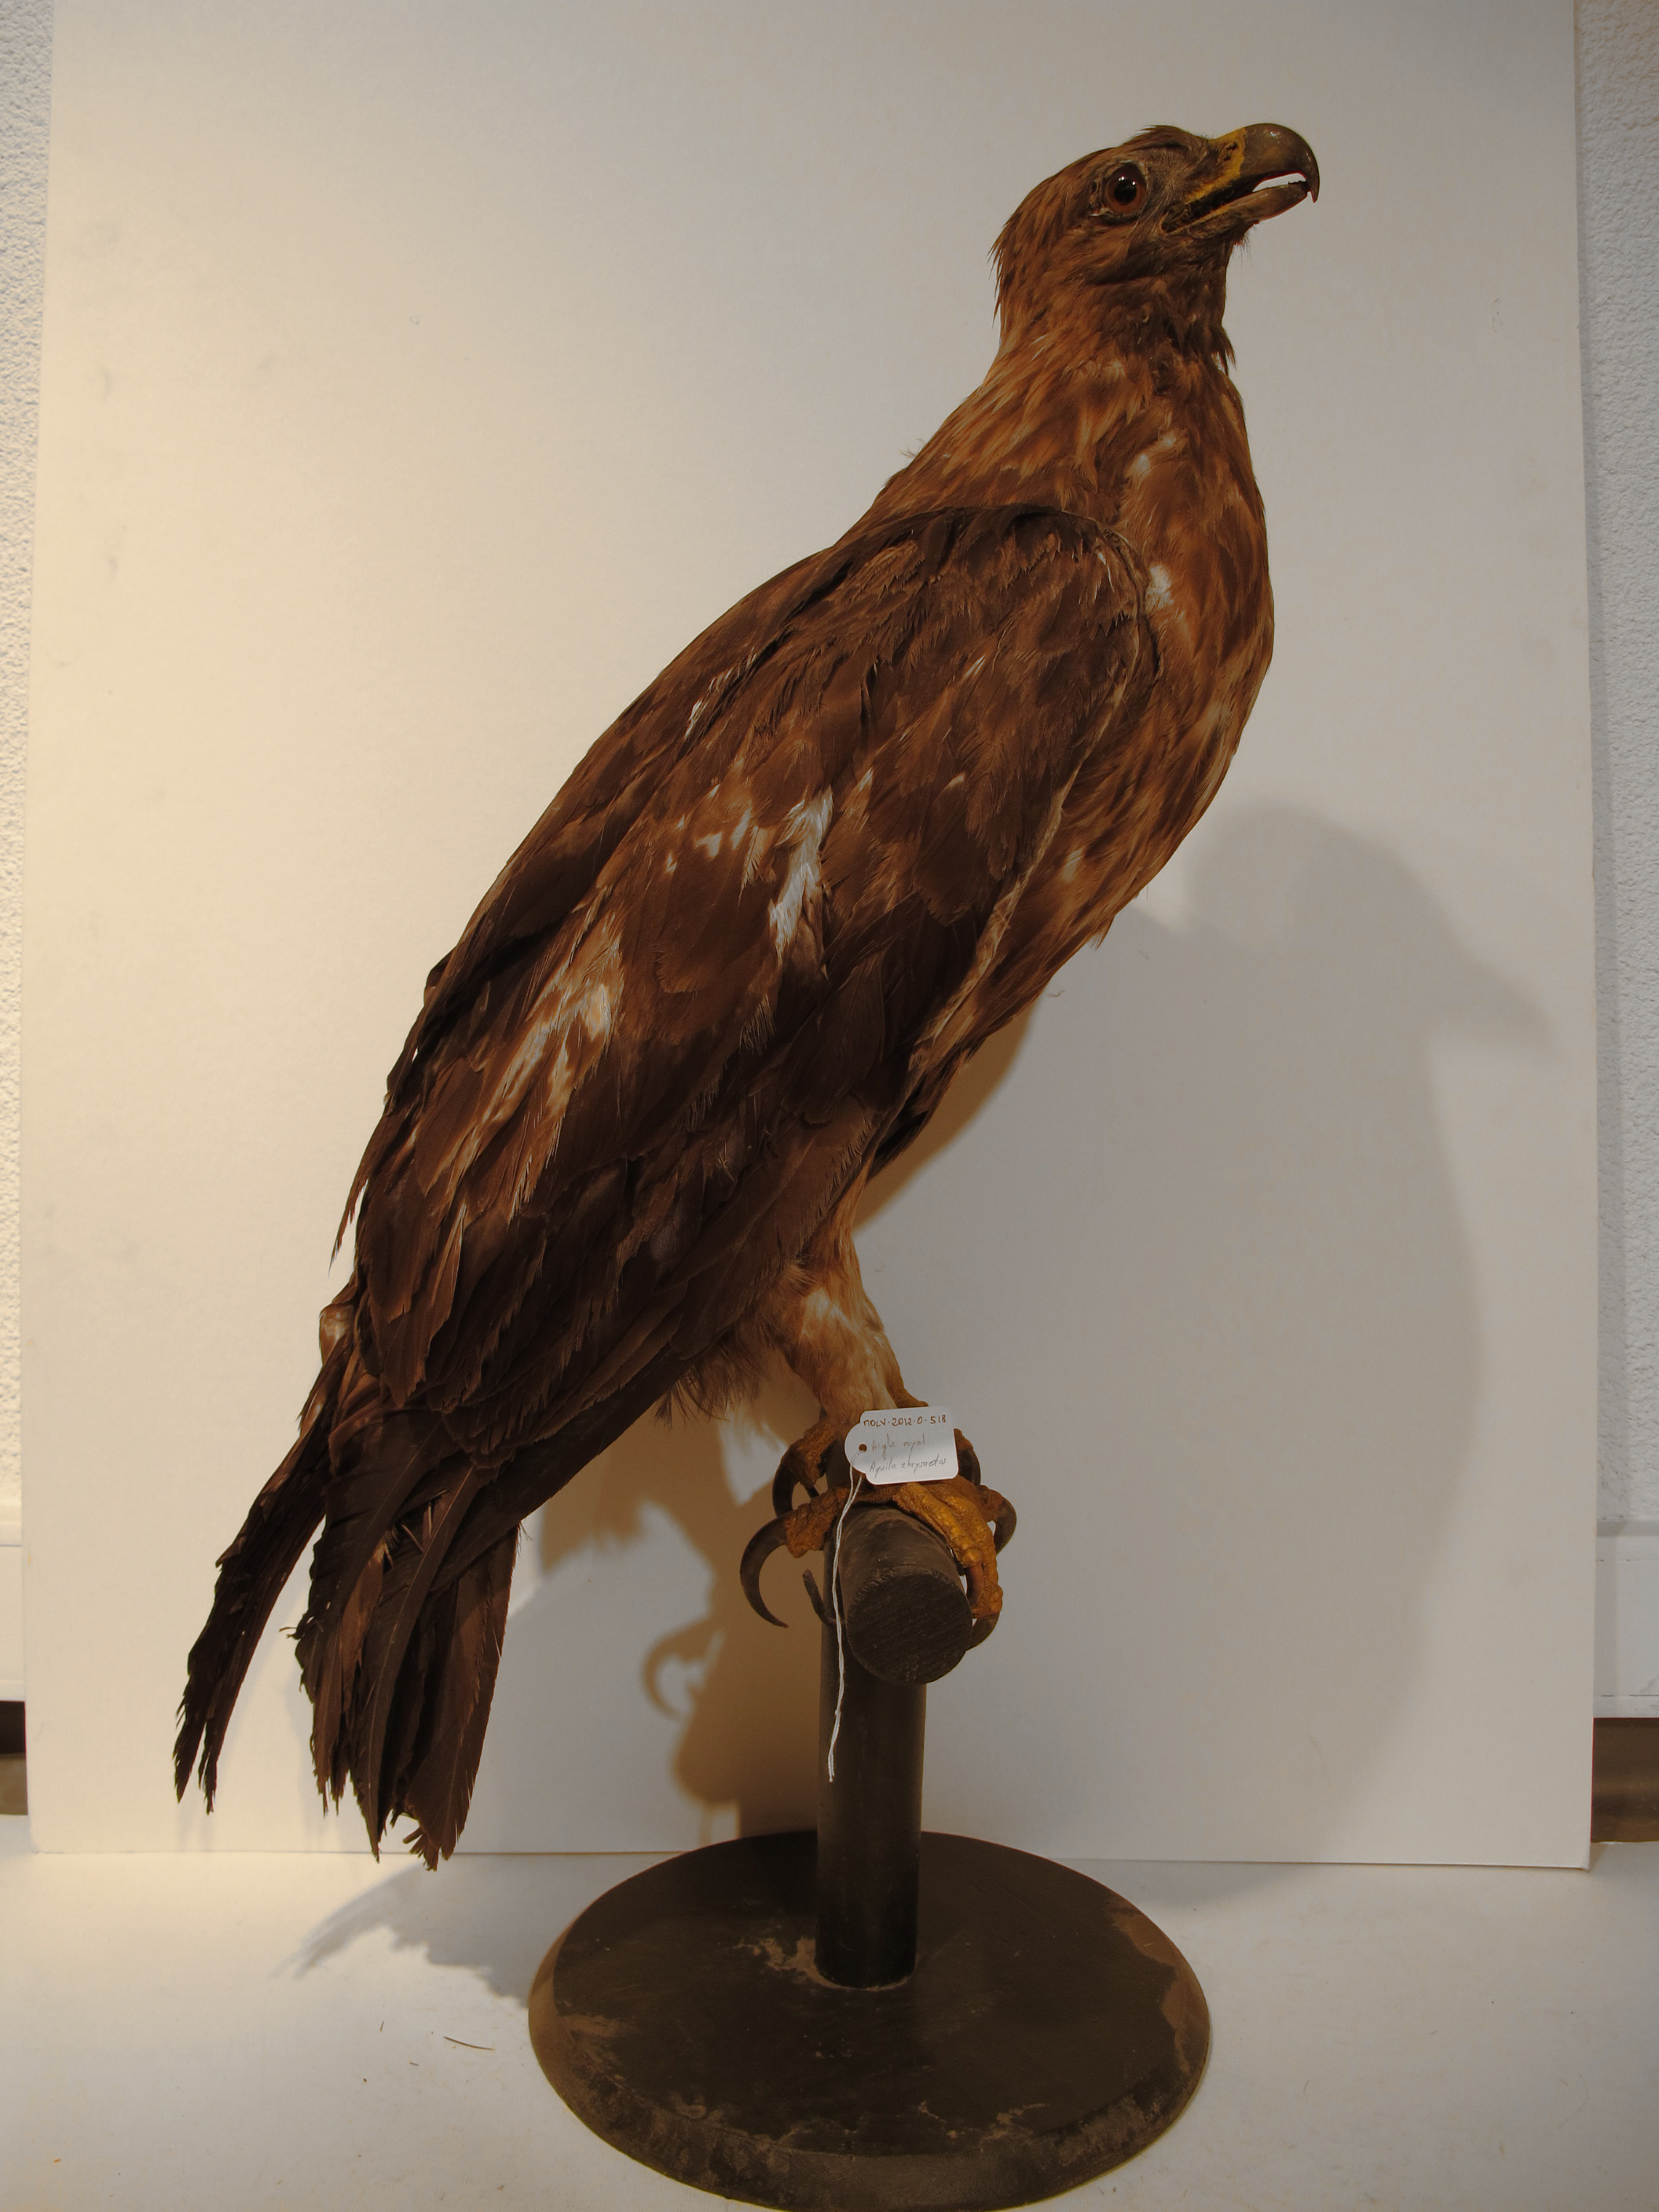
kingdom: Animalia
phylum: Chordata
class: Aves
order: Accipitriformes
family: Accipitridae
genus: Aquila
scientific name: Aquila chrysaetos
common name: Golden Eagle
